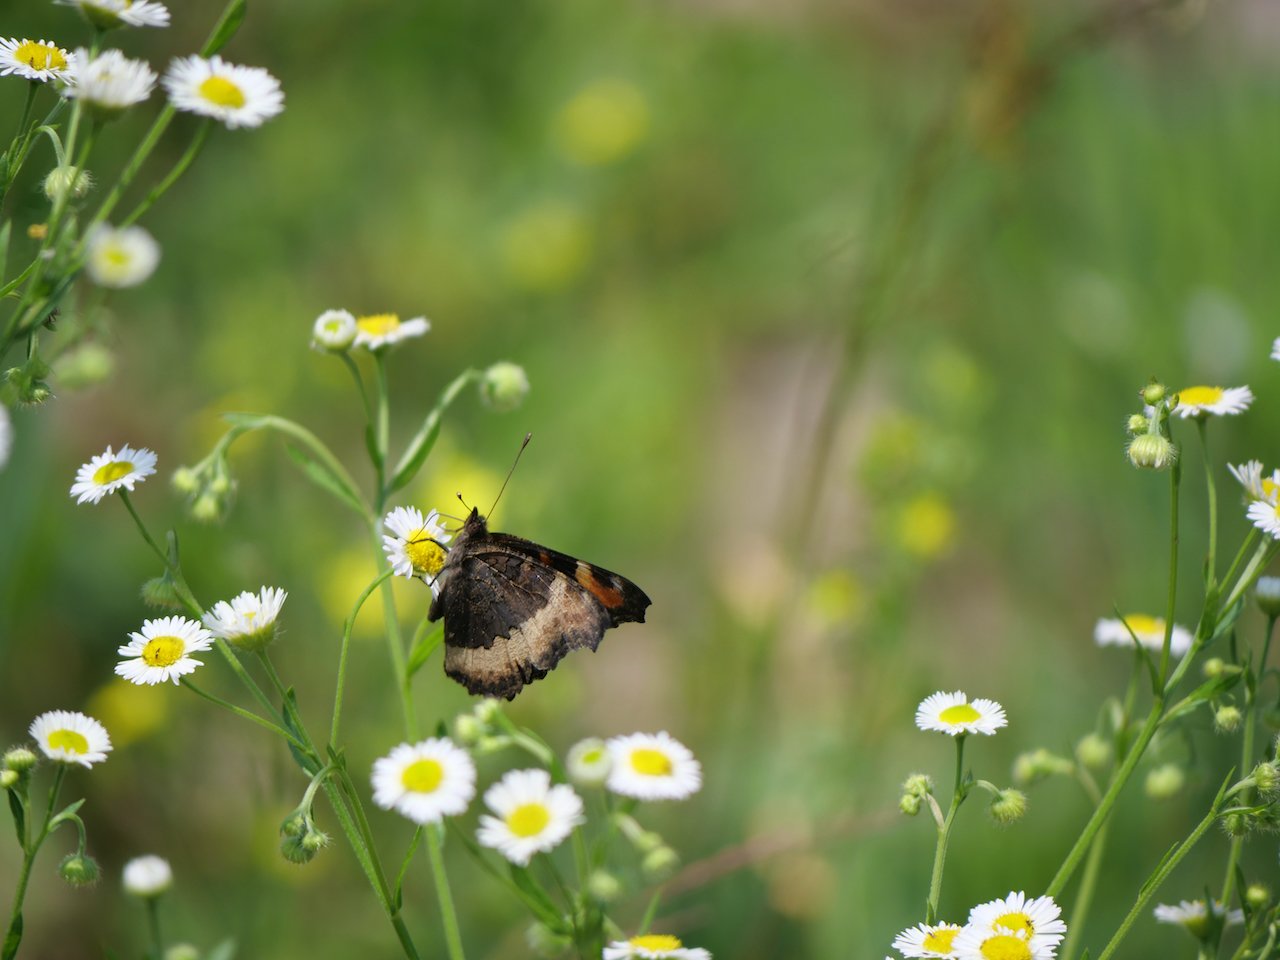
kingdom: Animalia
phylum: Arthropoda
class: Insecta
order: Lepidoptera
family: Nymphalidae
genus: Aglais
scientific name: Aglais milberti
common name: Milbert's Tortoiseshell
